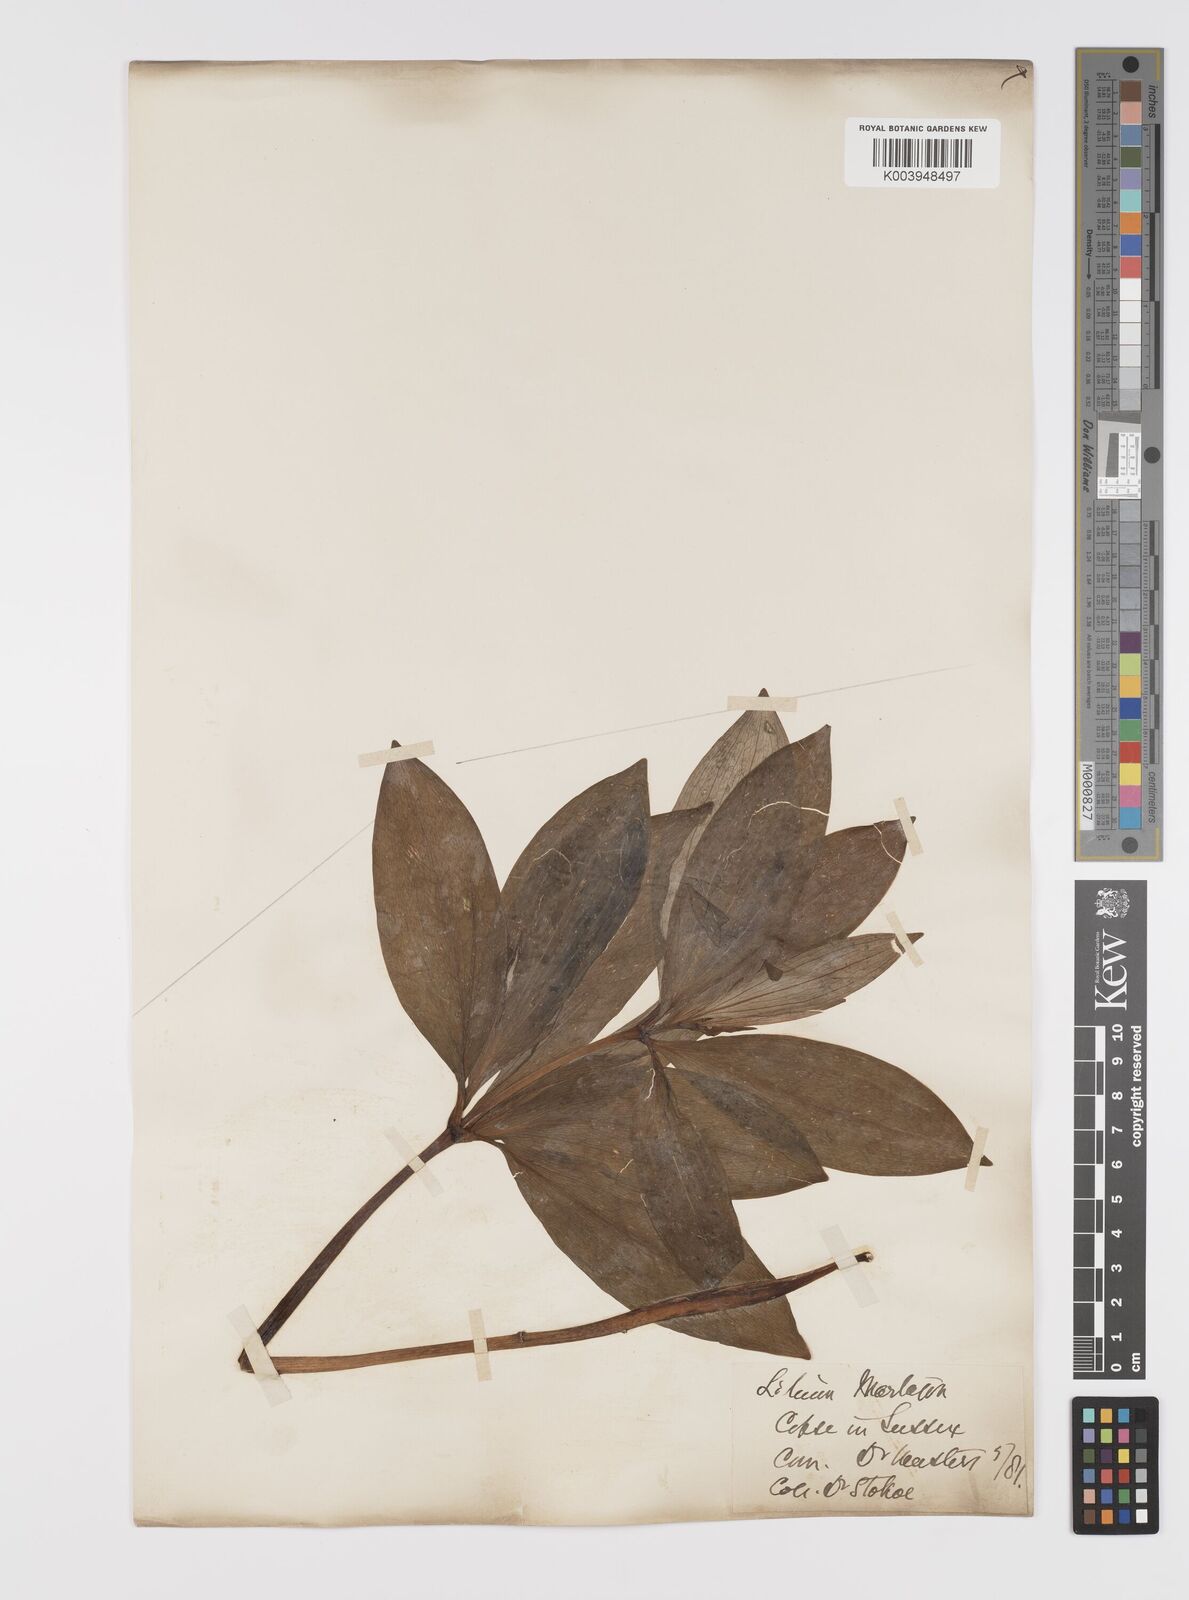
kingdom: Plantae
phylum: Tracheophyta
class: Liliopsida
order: Liliales
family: Liliaceae
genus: Lilium
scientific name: Lilium martagon
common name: Martagon lily
